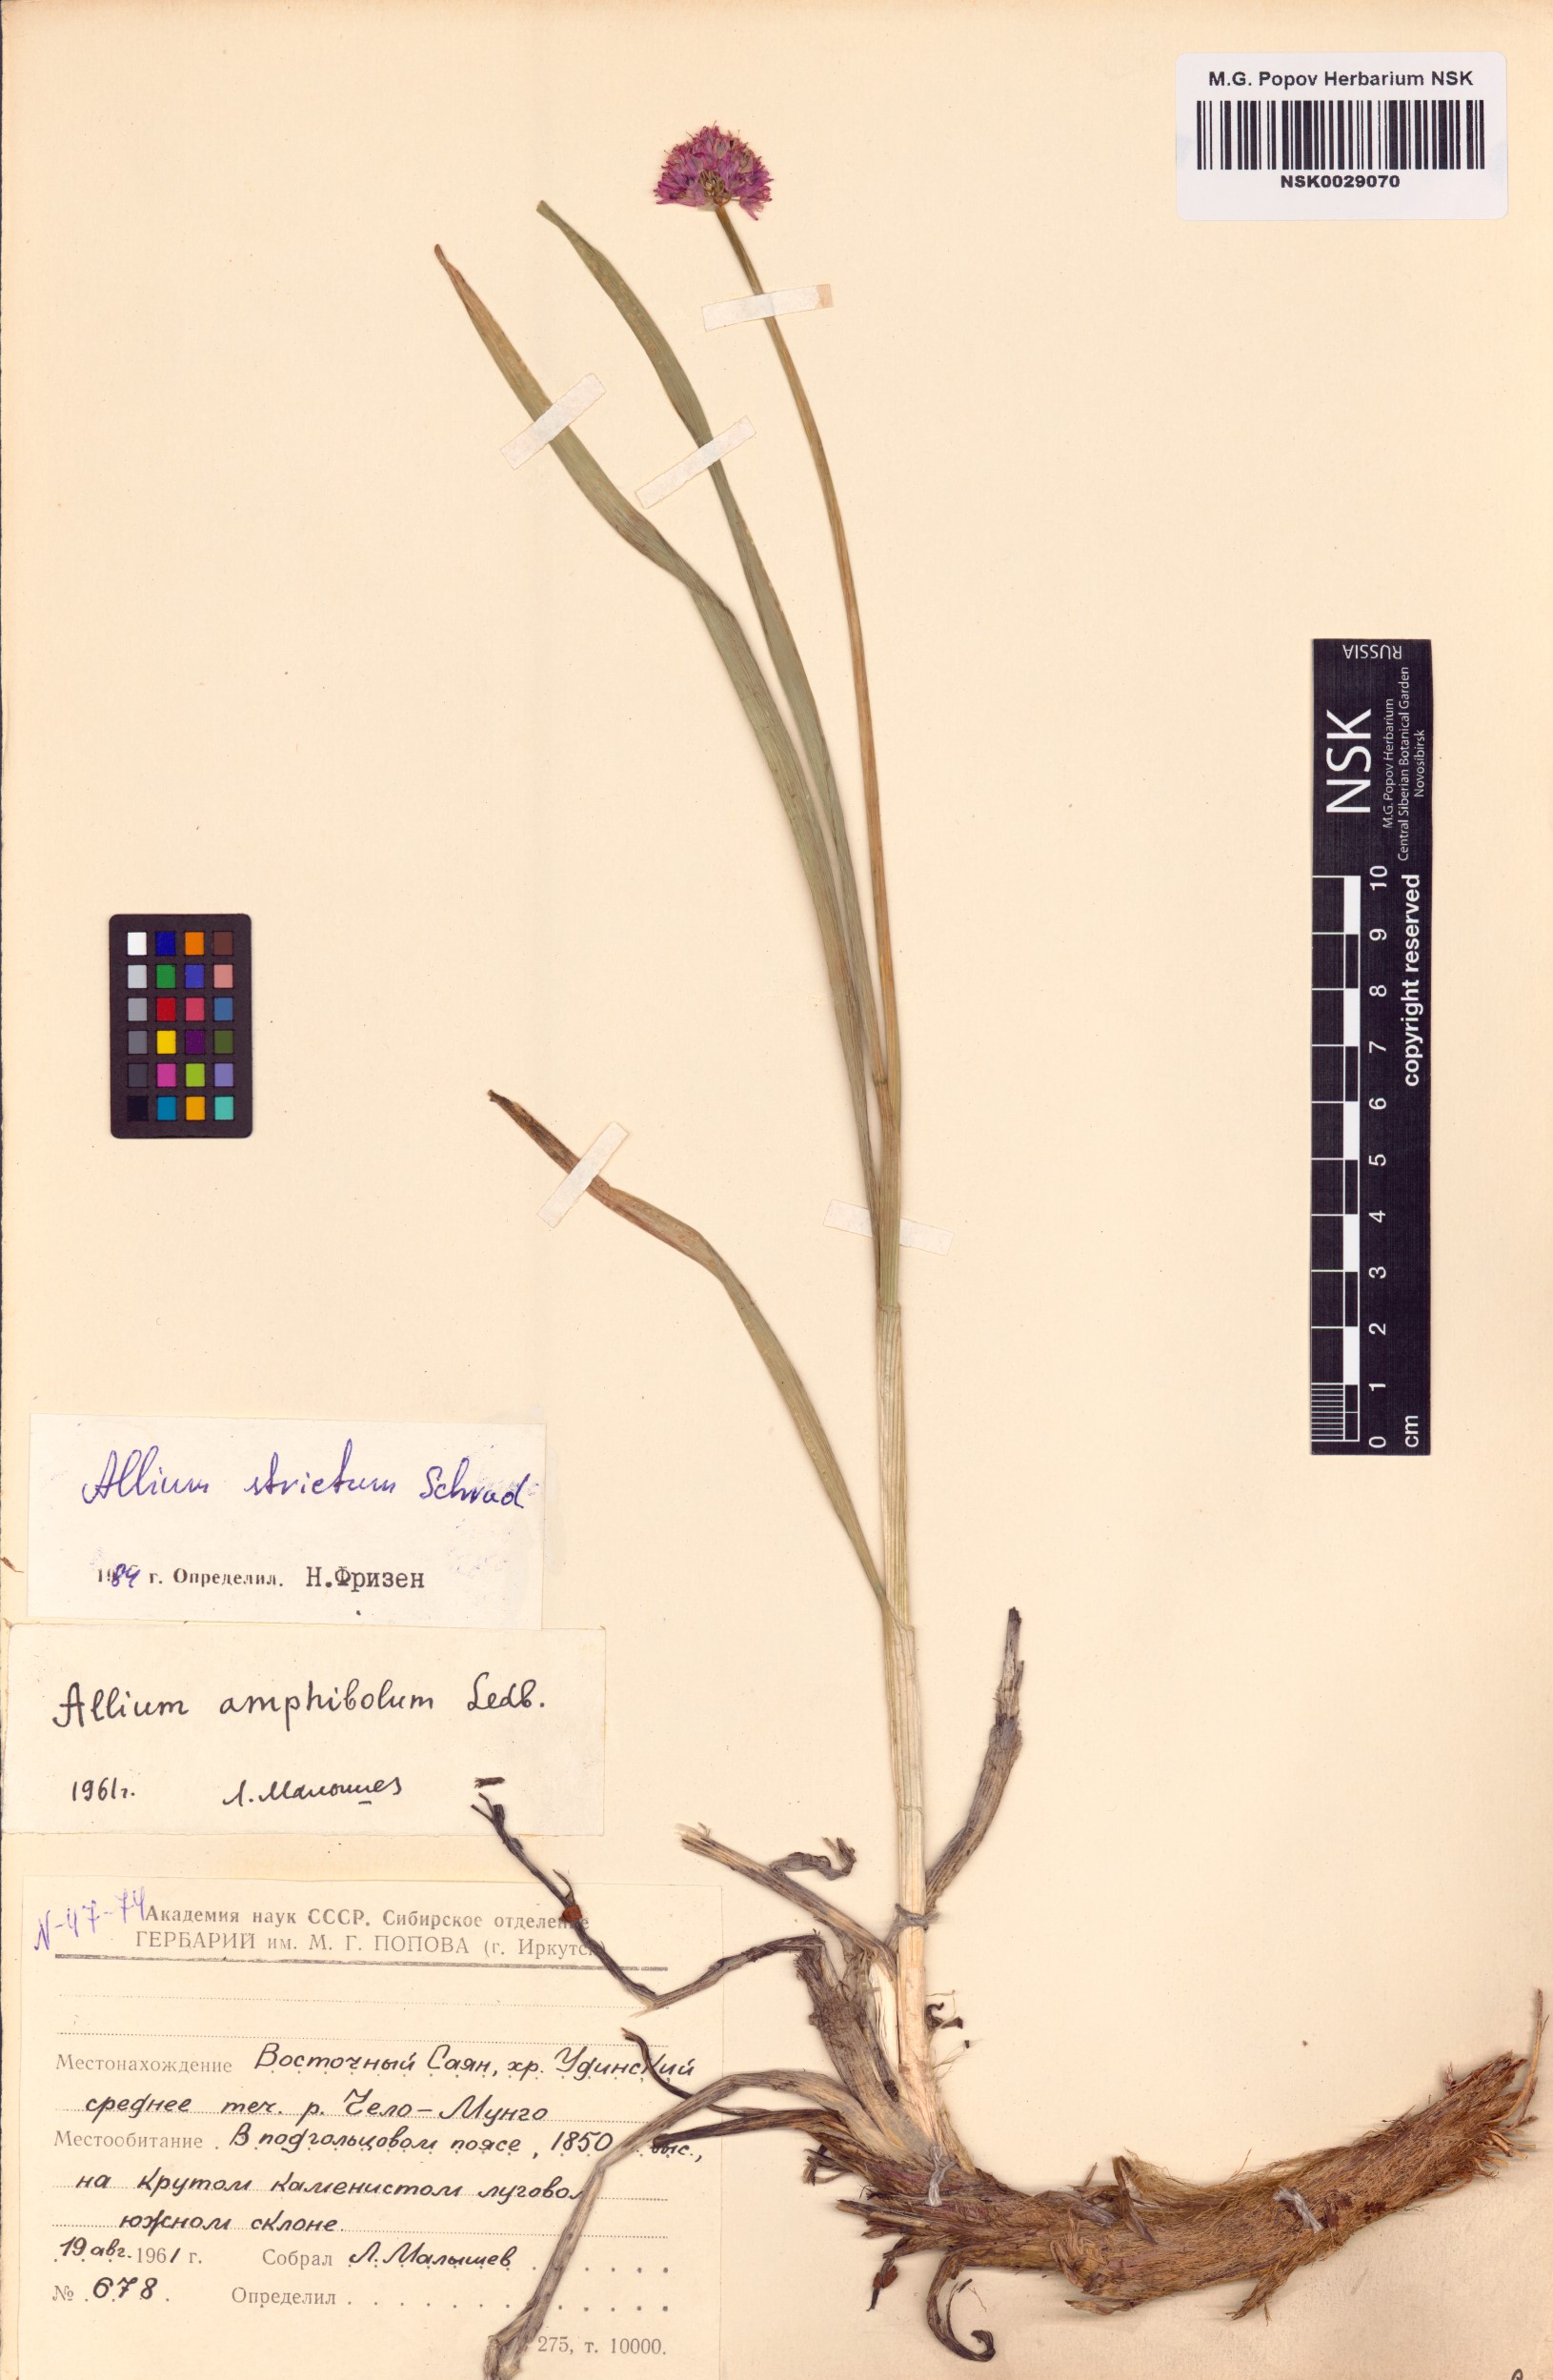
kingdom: Plantae
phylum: Tracheophyta
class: Liliopsida
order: Asparagales
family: Amaryllidaceae
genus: Allium
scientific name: Allium strictum
